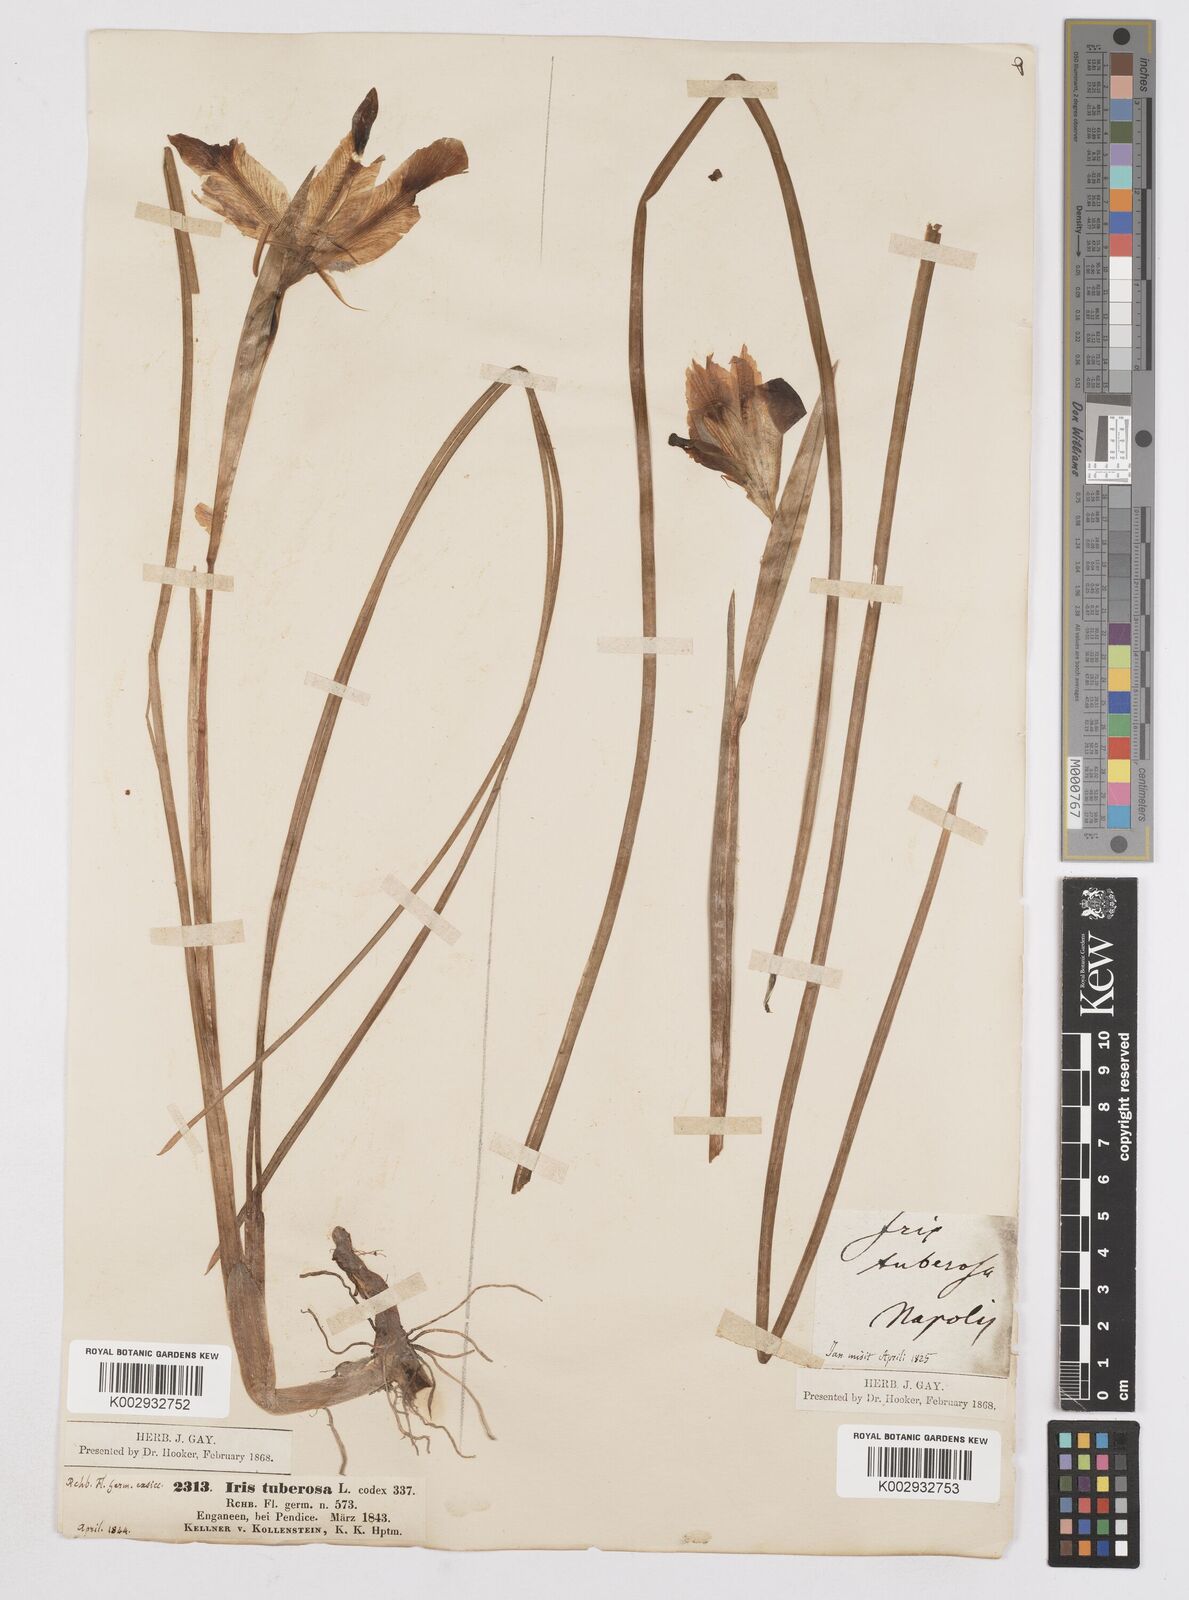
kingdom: Plantae
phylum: Tracheophyta
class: Liliopsida
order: Asparagales
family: Iridaceae
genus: Iris
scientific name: Iris tuberosa
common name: Snake's-head iris
